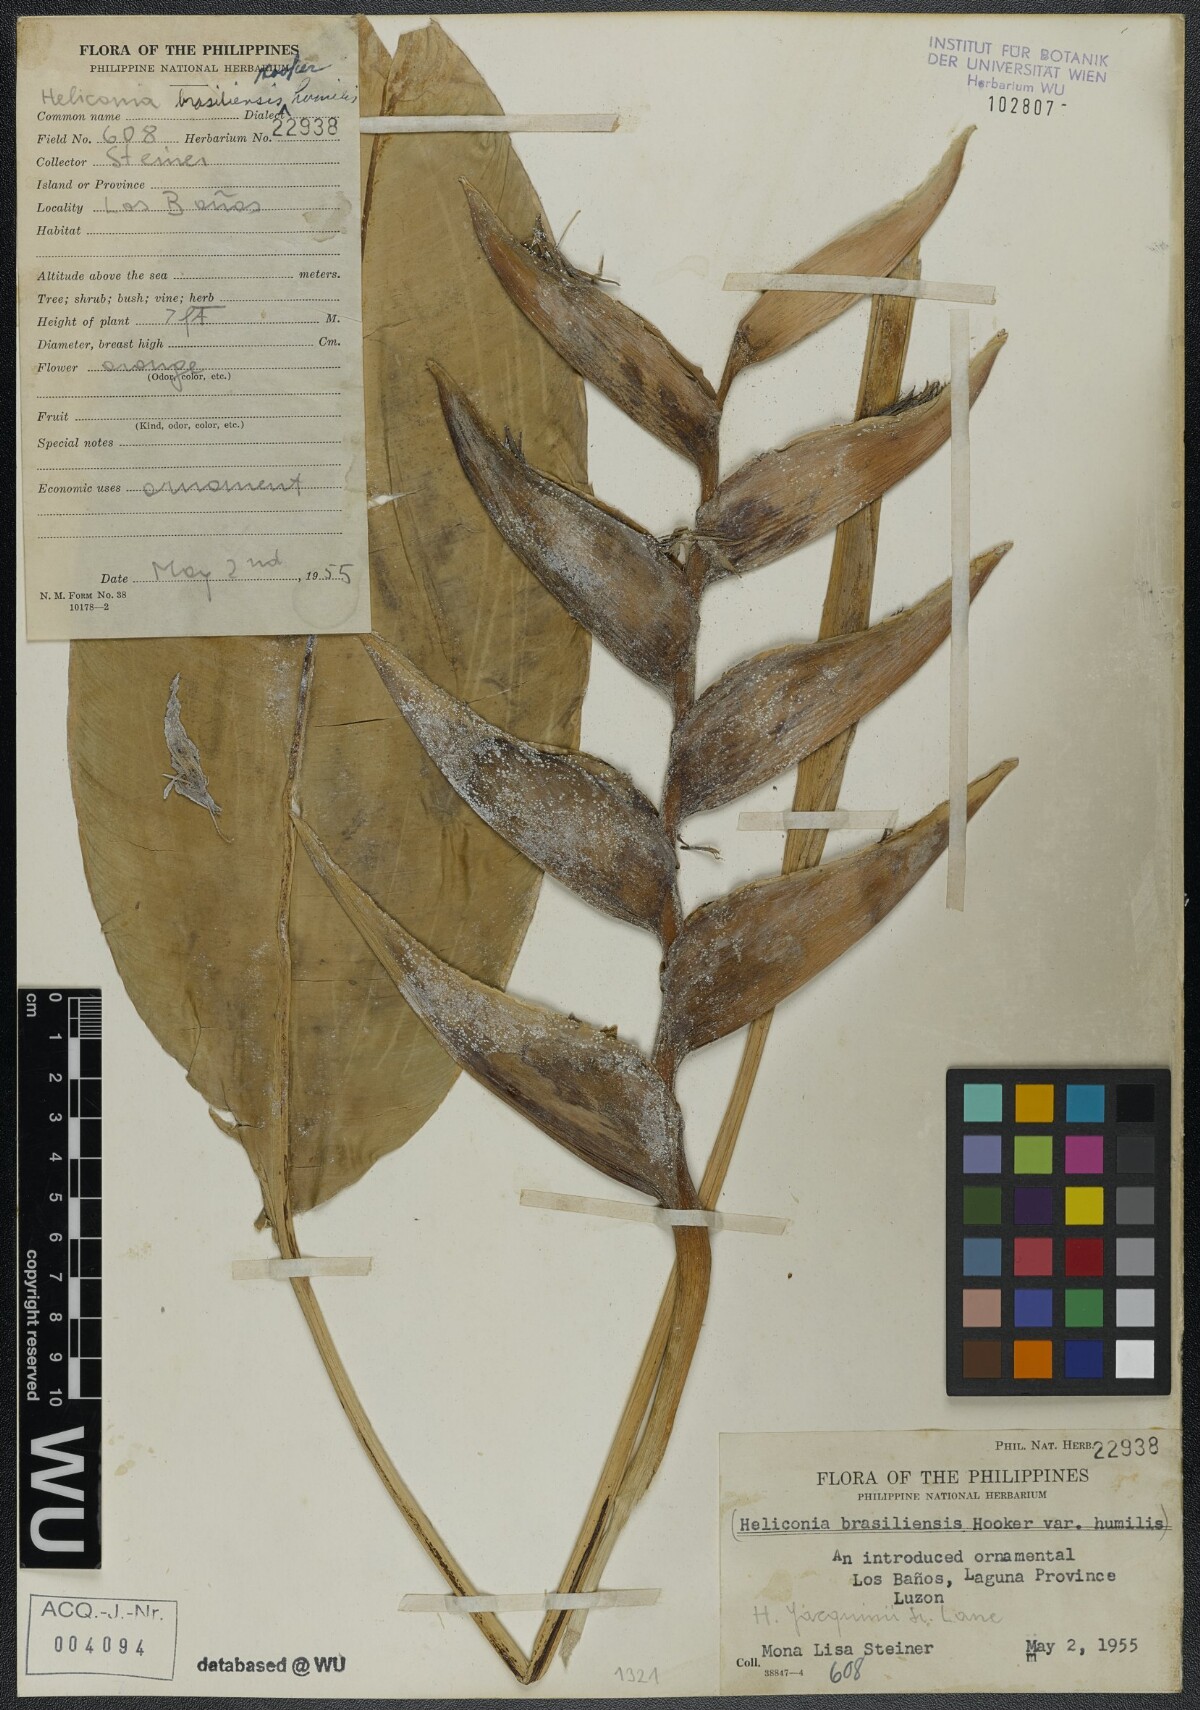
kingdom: Plantae
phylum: Tracheophyta
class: Liliopsida
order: Zingiberales
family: Heliconiaceae
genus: Heliconia
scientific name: Heliconia farinosa
